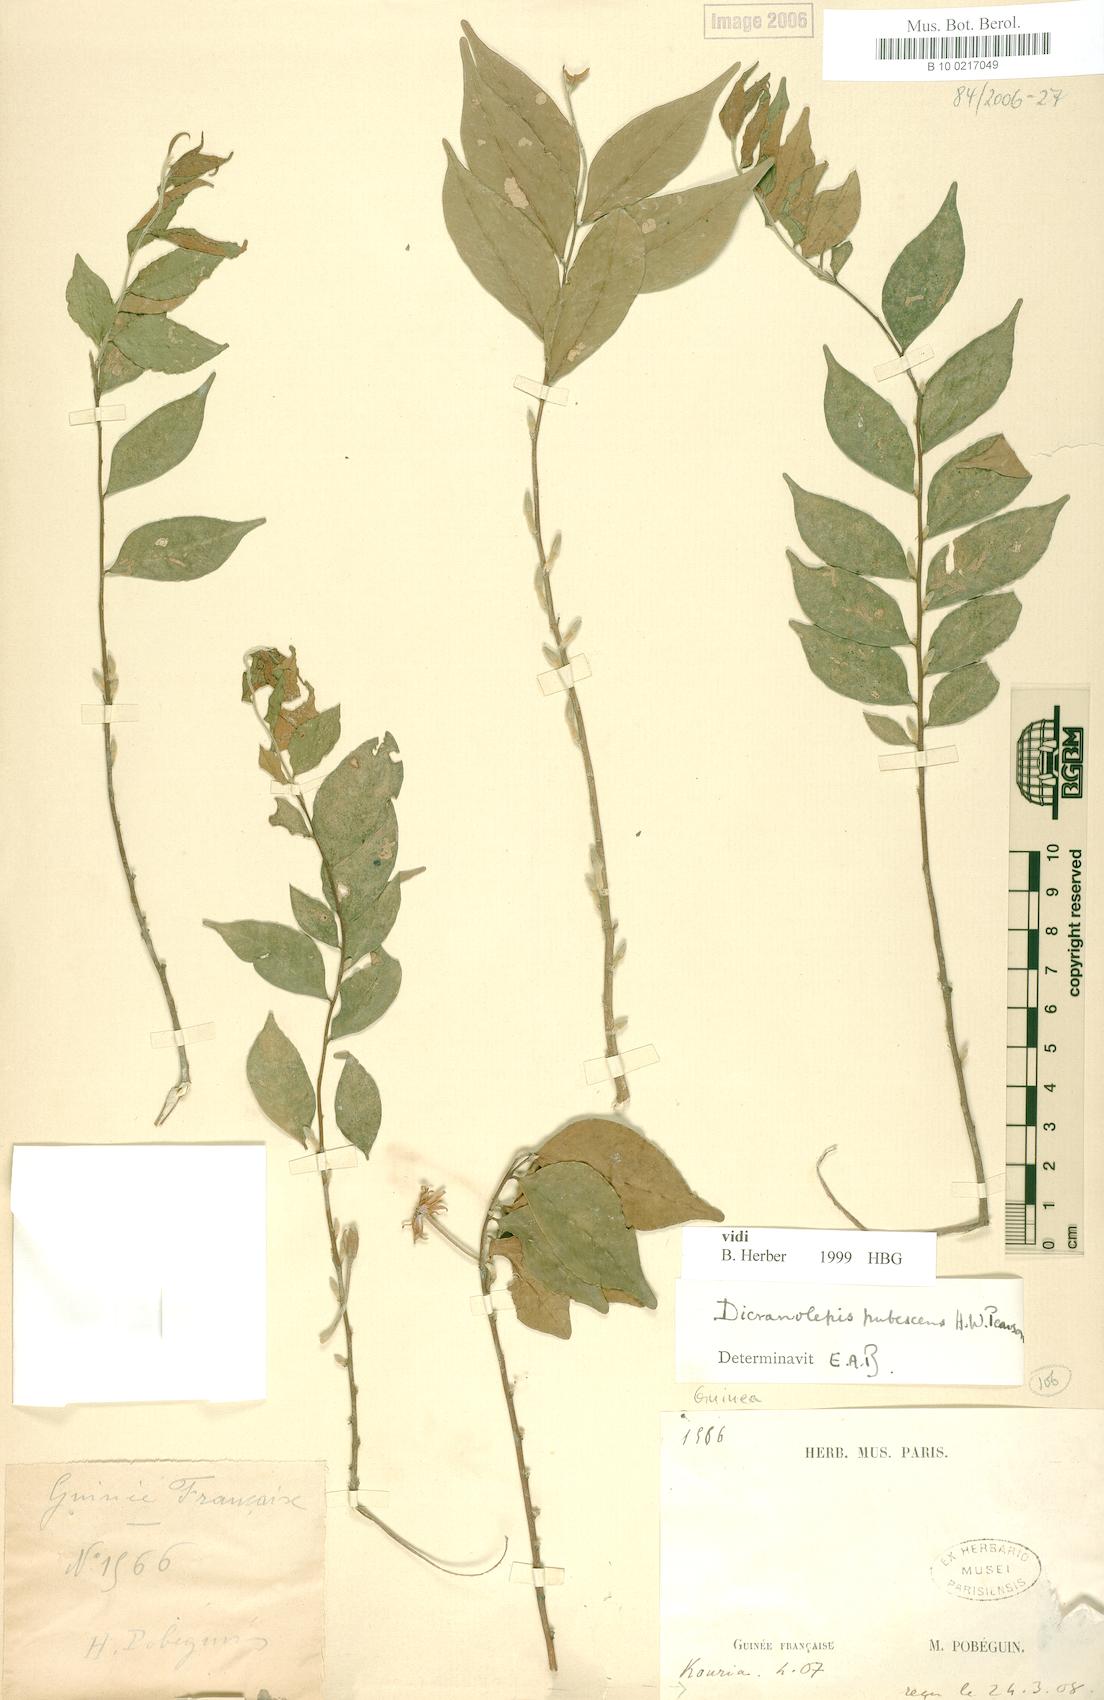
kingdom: Plantae
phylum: Tracheophyta
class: Magnoliopsida
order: Malvales
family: Thymelaeaceae
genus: Dicranolepis
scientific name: Dicranolepis laciniata
